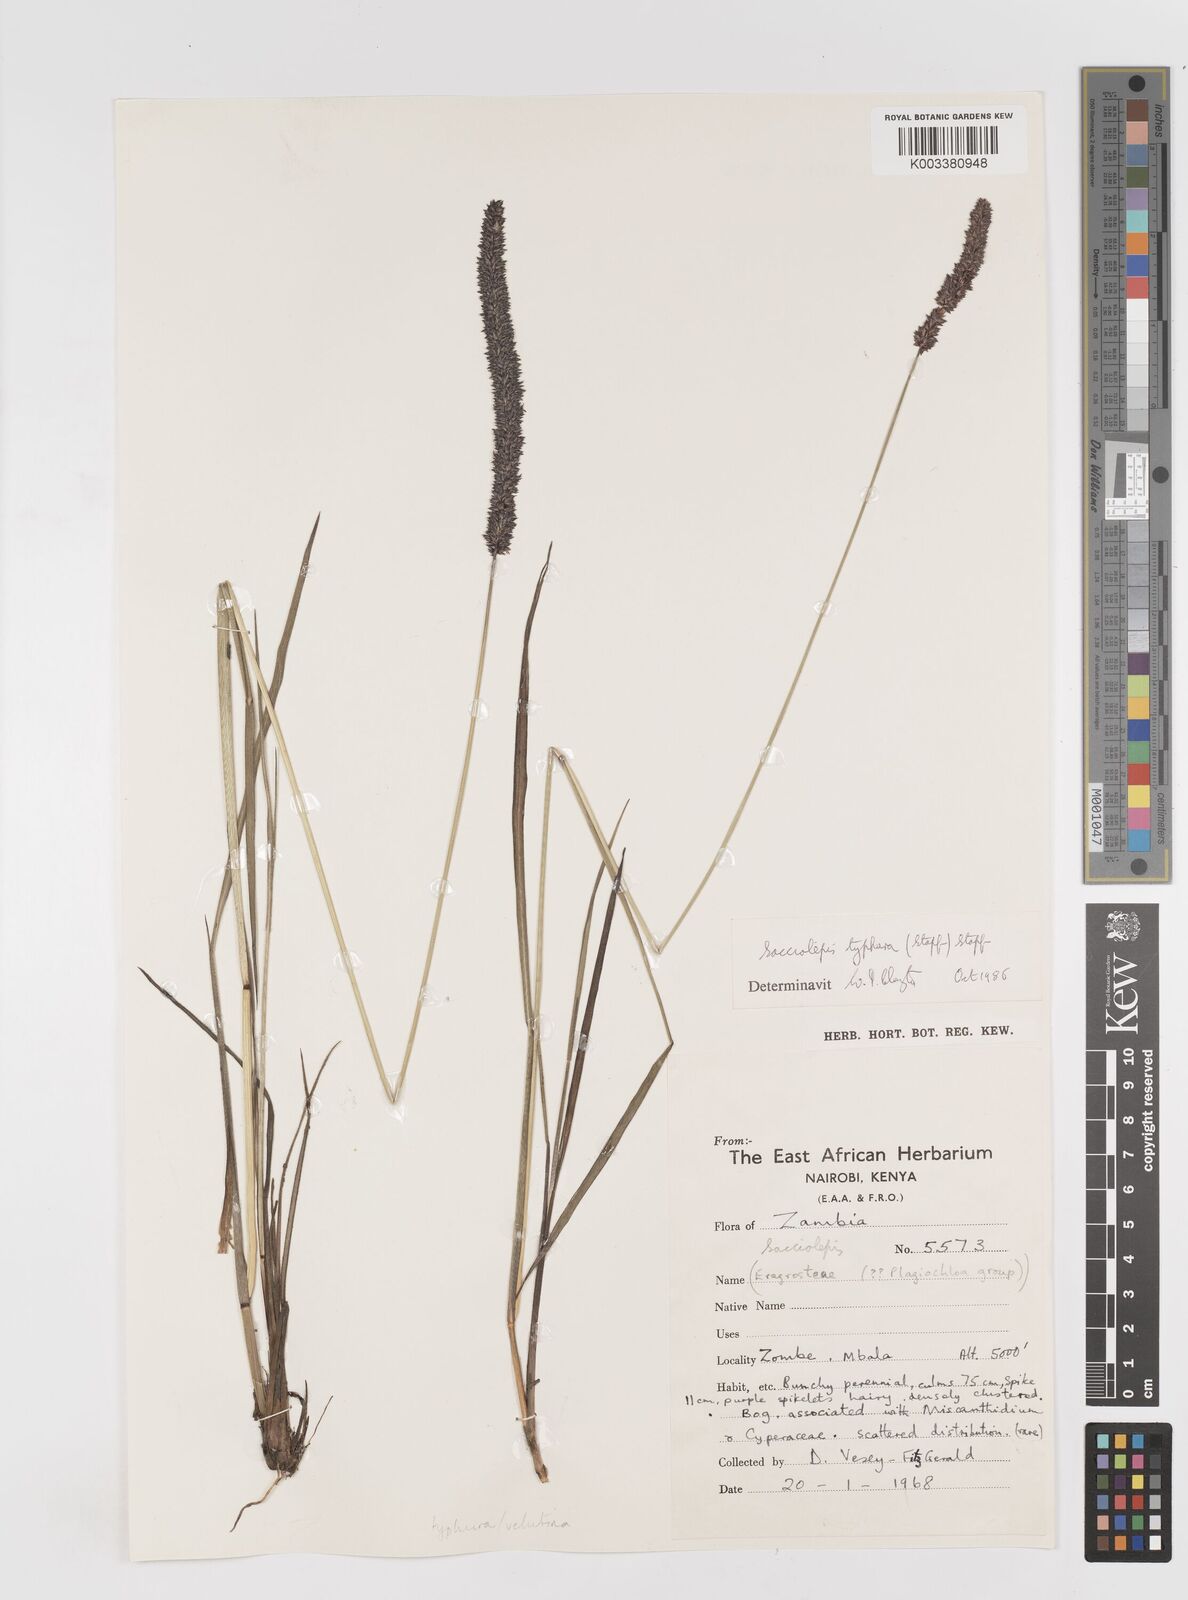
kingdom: Plantae
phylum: Tracheophyta
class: Liliopsida
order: Poales
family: Poaceae
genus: Sacciolepis
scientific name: Sacciolepis typhura
